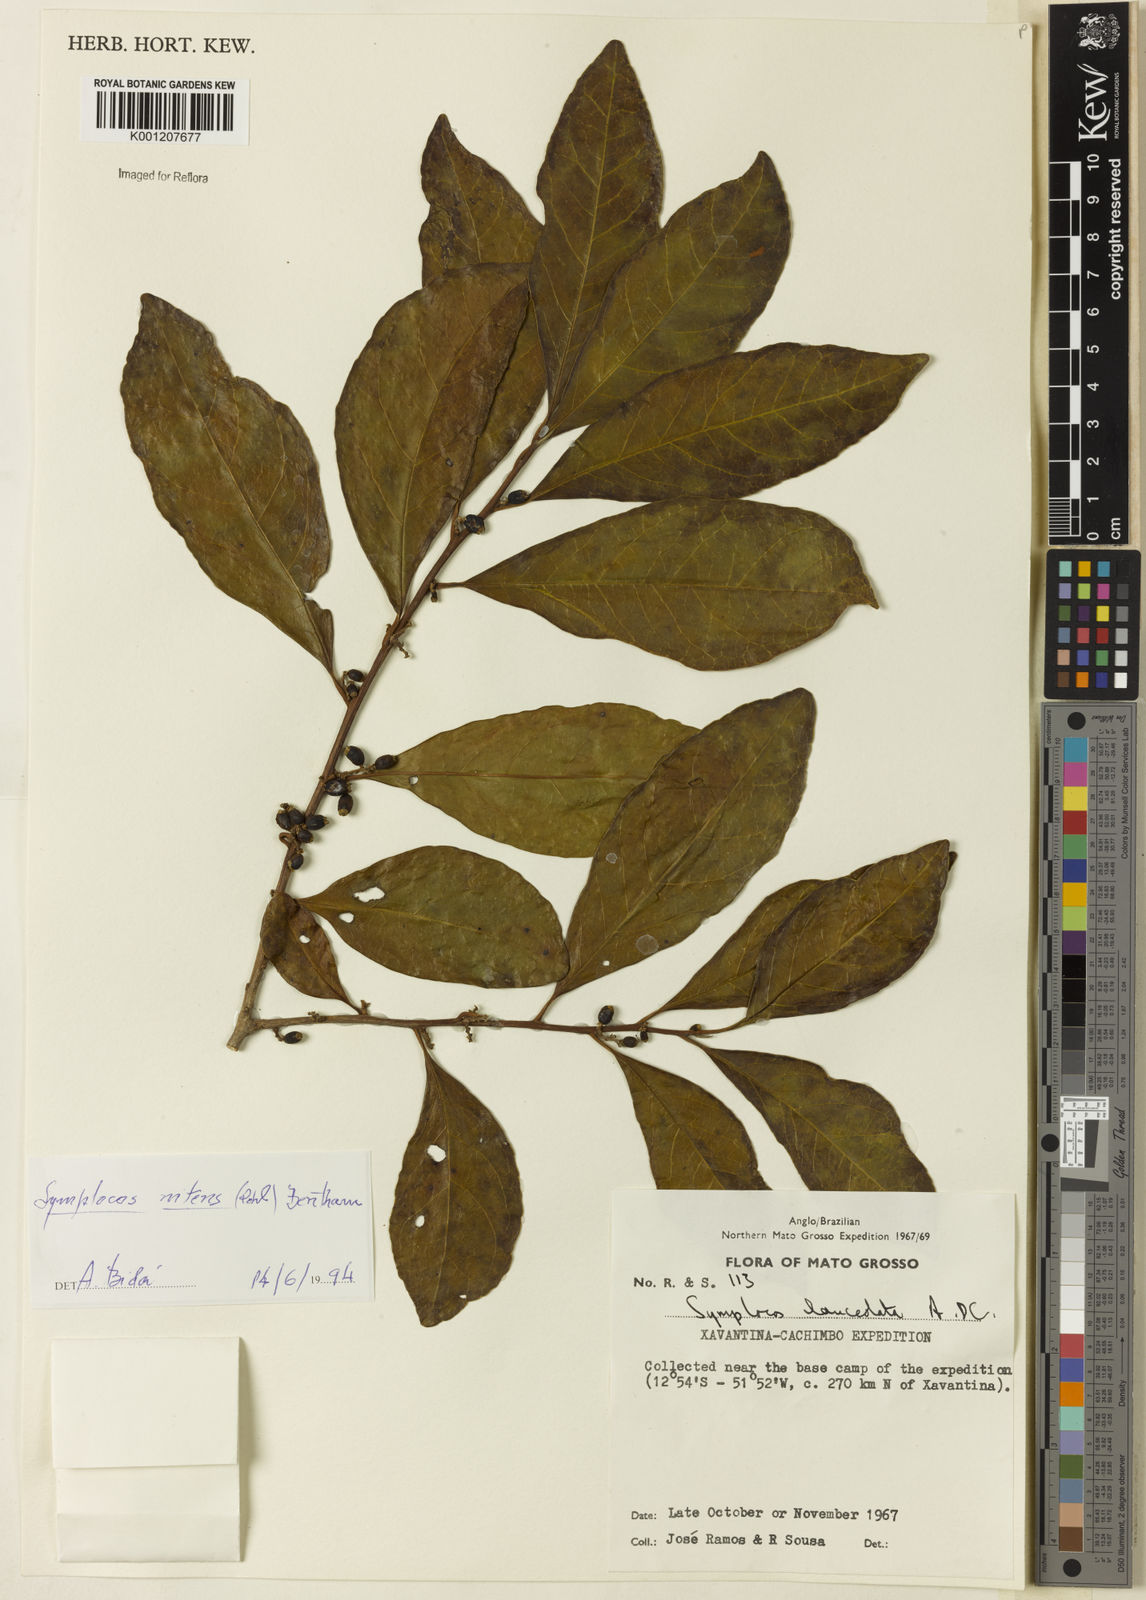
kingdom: Plantae
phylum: Tracheophyta
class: Magnoliopsida
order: Ericales
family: Symplocaceae
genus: Symplocos
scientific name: Symplocos nitens
